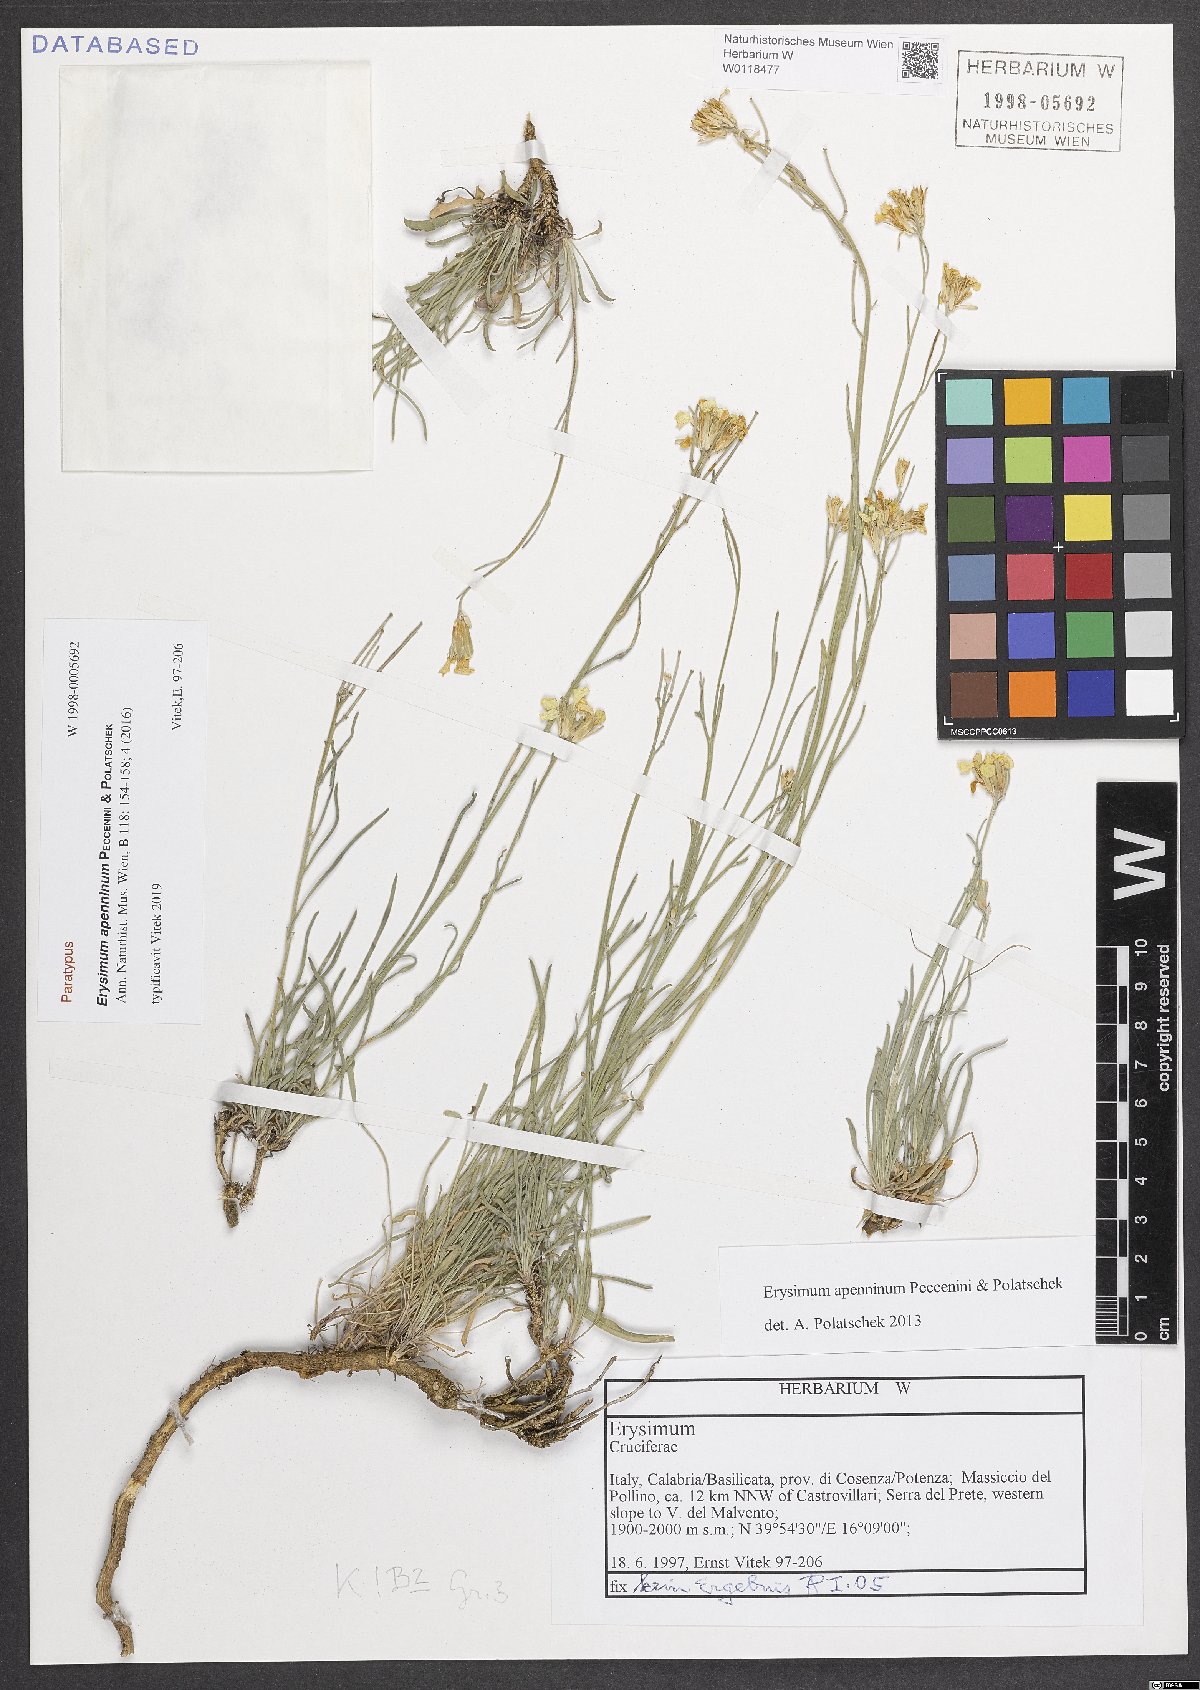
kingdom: Plantae
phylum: Tracheophyta
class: Magnoliopsida
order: Brassicales
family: Brassicaceae
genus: Erysimum
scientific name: Erysimum apenninum
